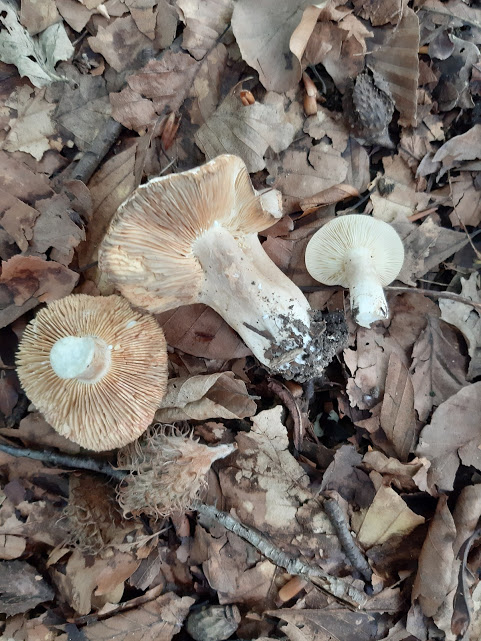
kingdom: Fungi
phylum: Basidiomycota
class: Agaricomycetes
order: Russulales
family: Russulaceae
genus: Lactarius
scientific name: Lactarius
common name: mælkehat
